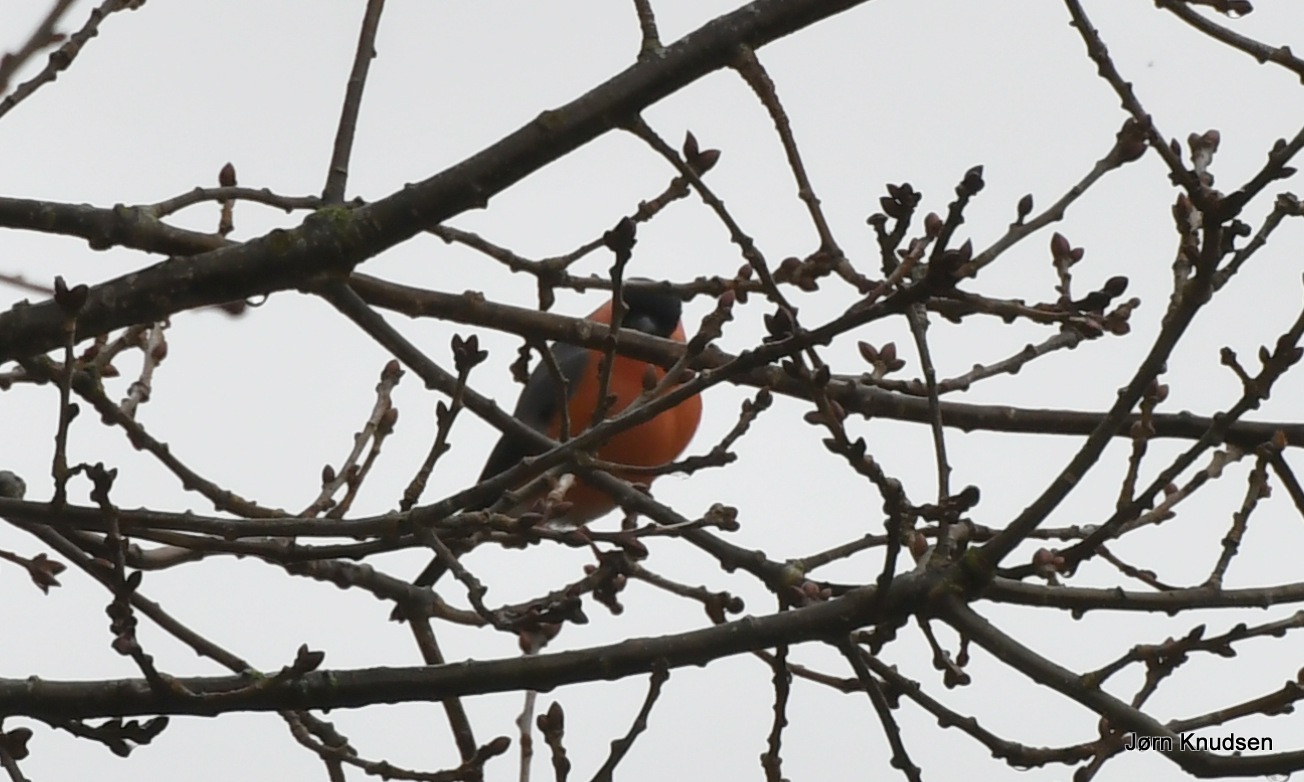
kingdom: Animalia
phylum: Chordata
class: Aves
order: Passeriformes
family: Fringillidae
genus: Pyrrhula
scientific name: Pyrrhula pyrrhula
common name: Dompap
